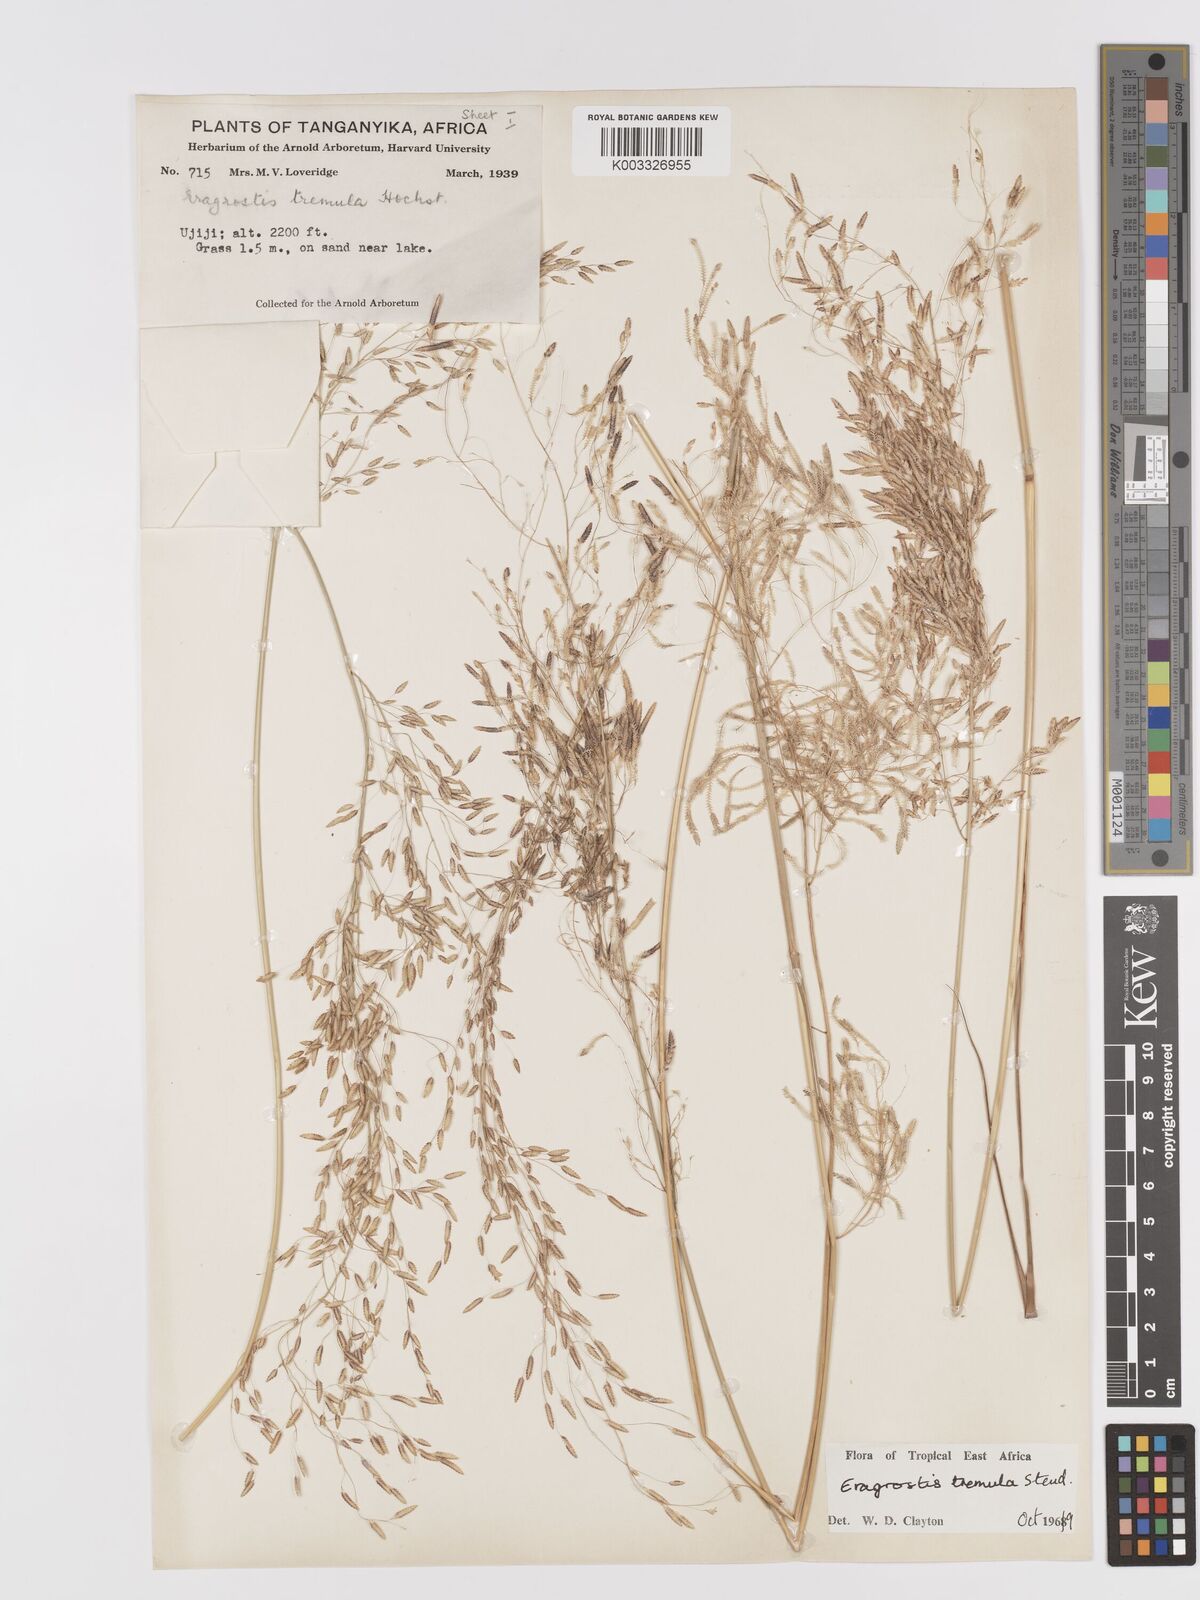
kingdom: Plantae
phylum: Tracheophyta
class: Liliopsida
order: Poales
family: Poaceae
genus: Eragrostis
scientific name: Eragrostis tremula
